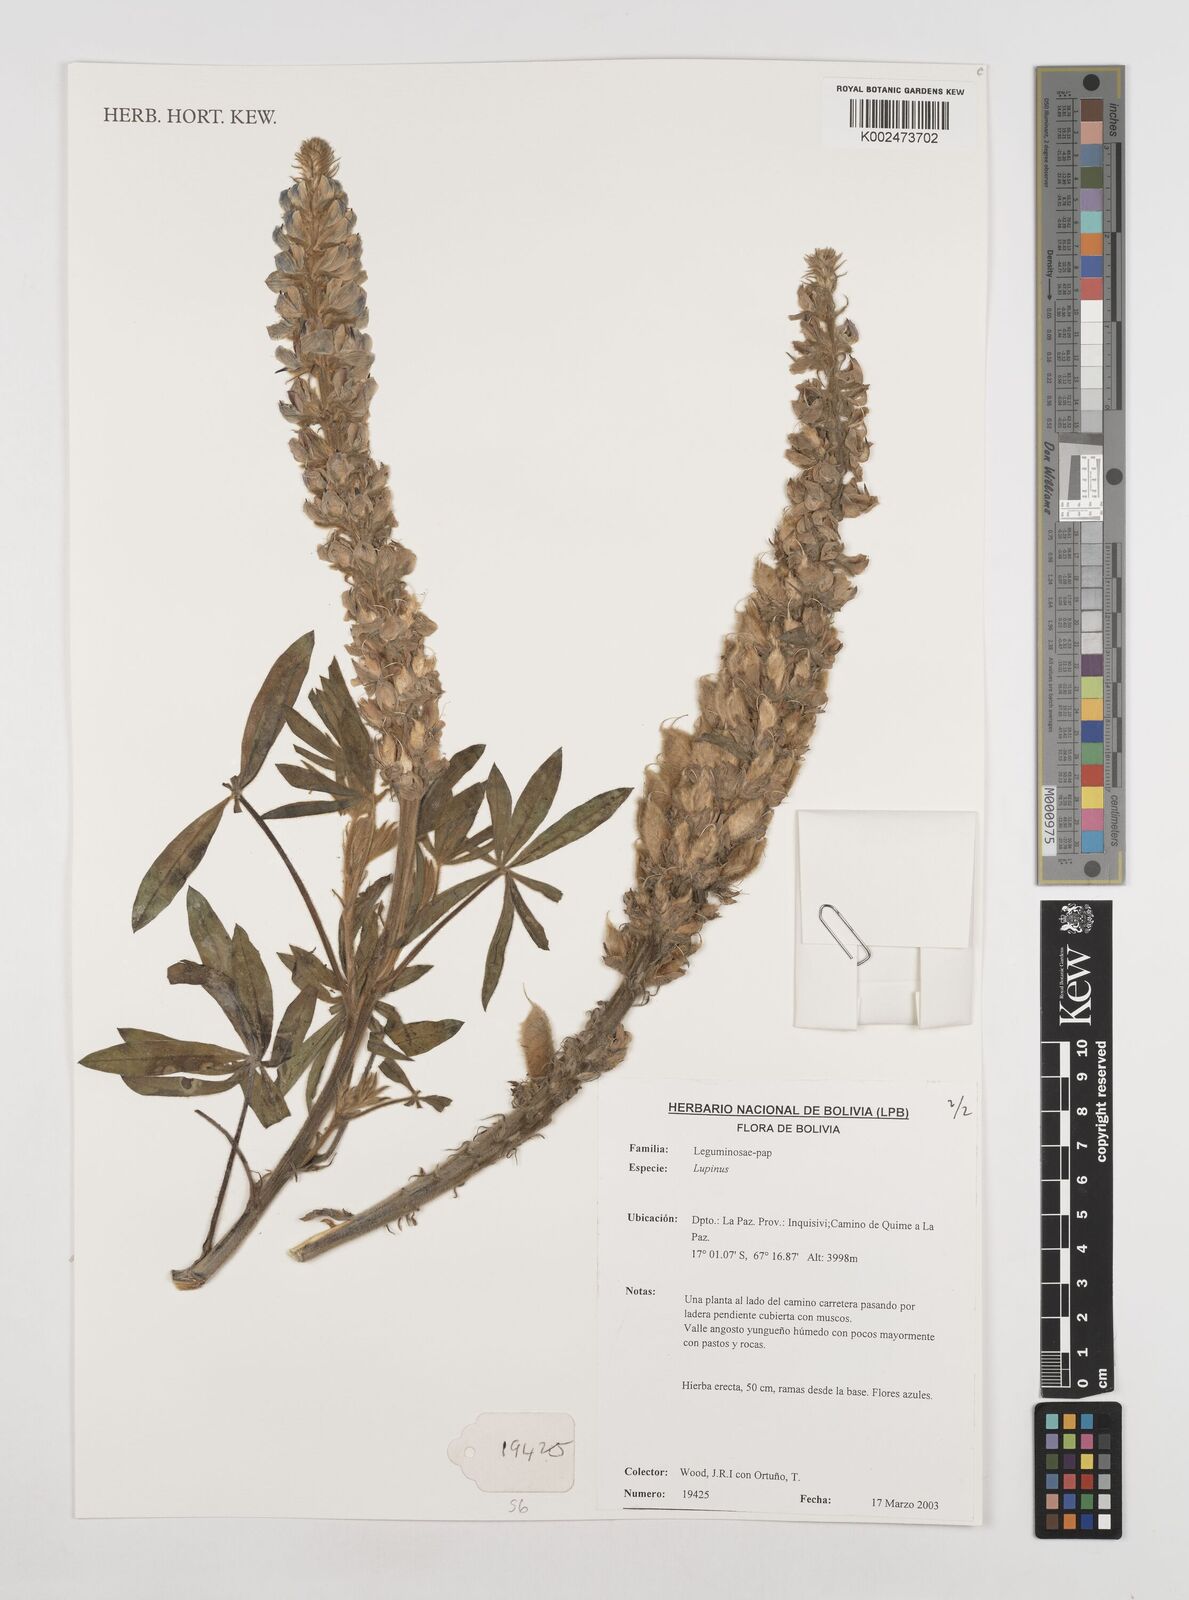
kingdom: Plantae
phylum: Tracheophyta
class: Magnoliopsida
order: Fabales
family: Fabaceae
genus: Lupinus
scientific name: Lupinus
